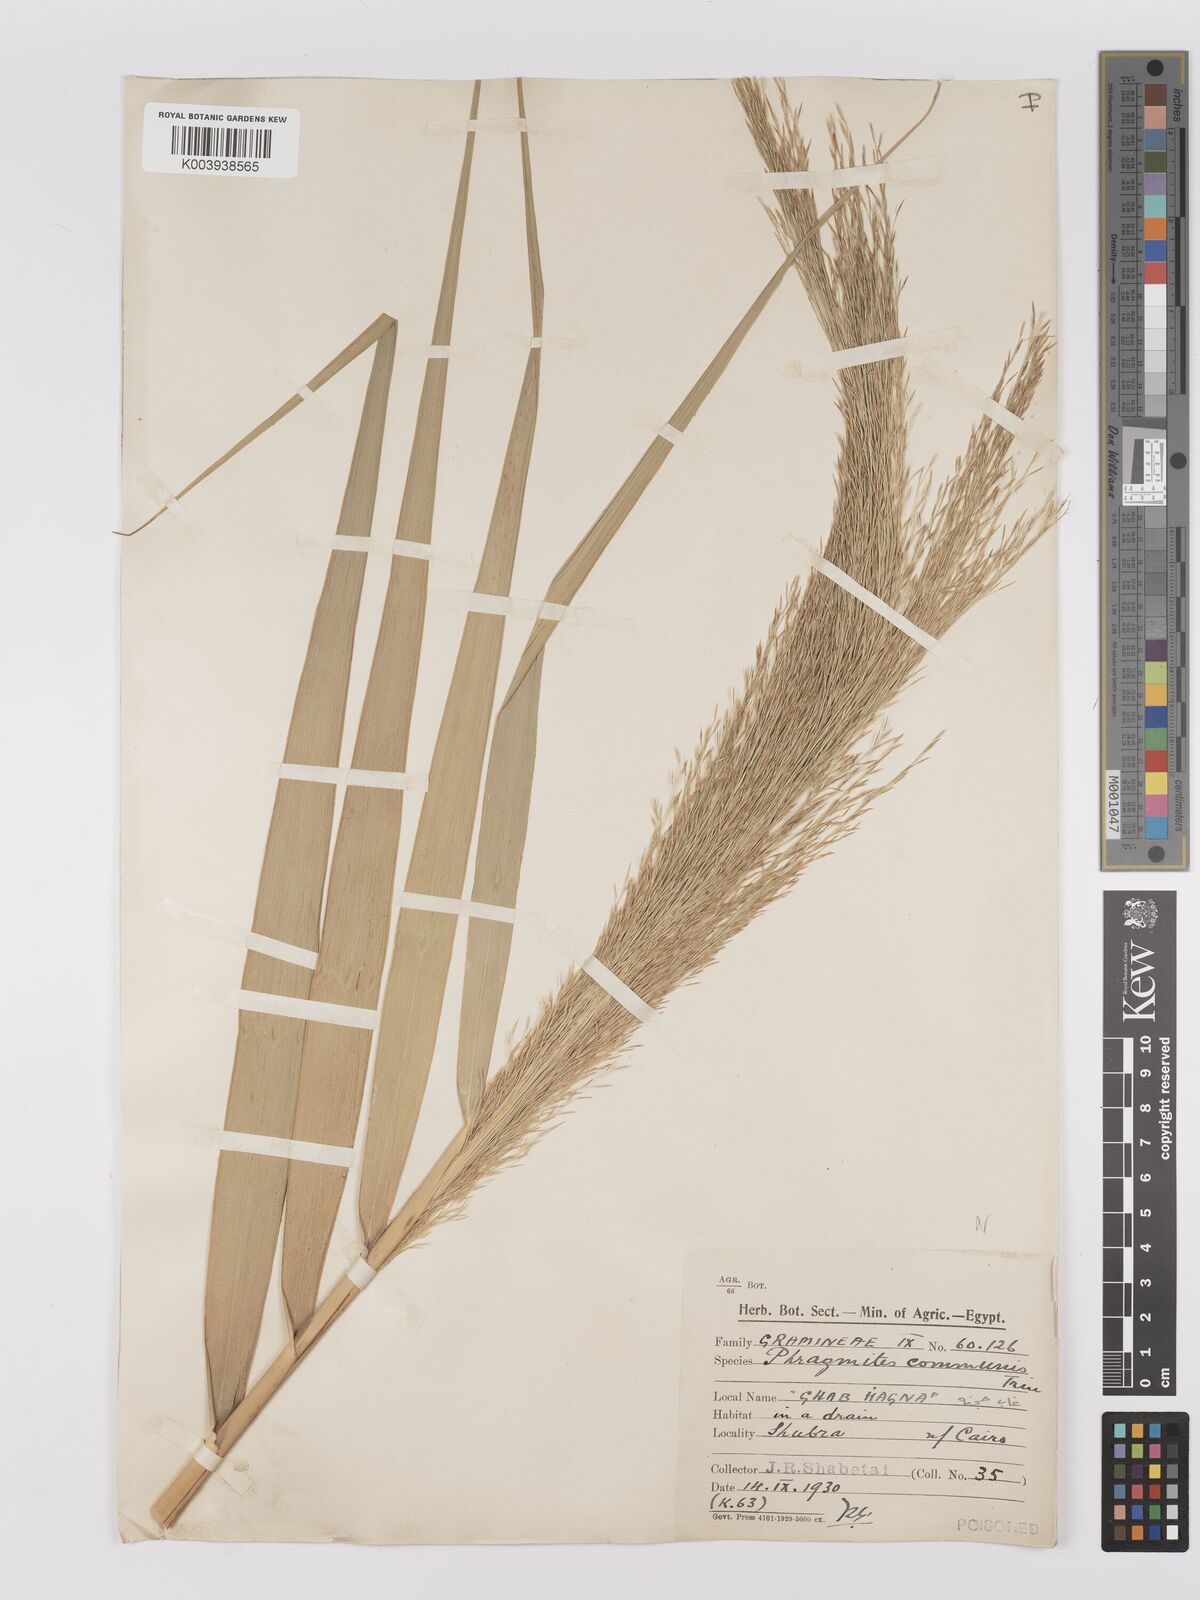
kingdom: Plantae
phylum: Tracheophyta
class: Liliopsida
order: Poales
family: Poaceae
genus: Phragmites
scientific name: Phragmites australis
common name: Common reed
